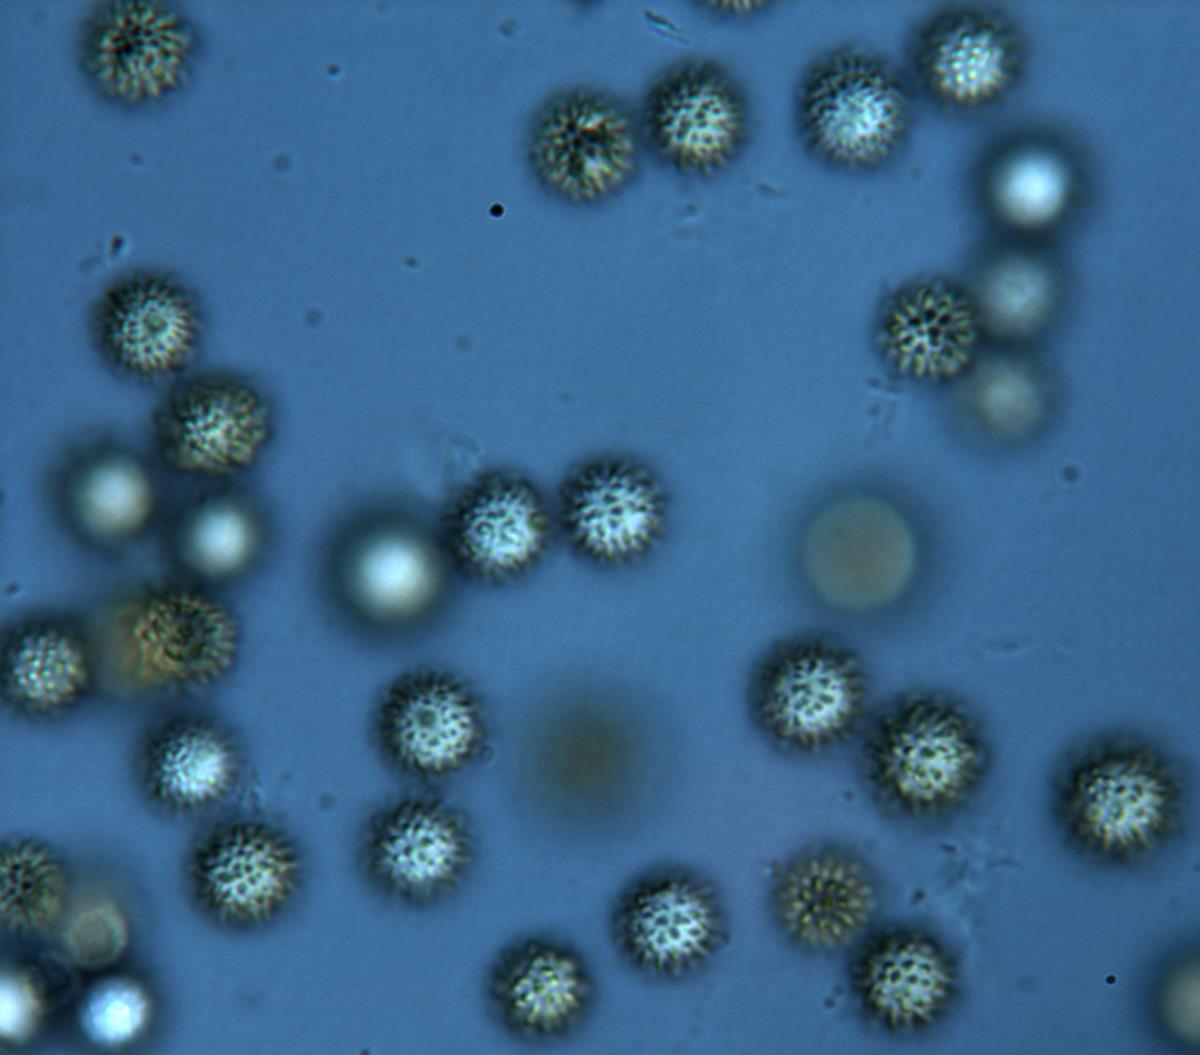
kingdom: Fungi
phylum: Basidiomycota
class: Agaricomycetes
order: Boletales
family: Sclerodermataceae
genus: Pisolithus
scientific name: Pisolithus
